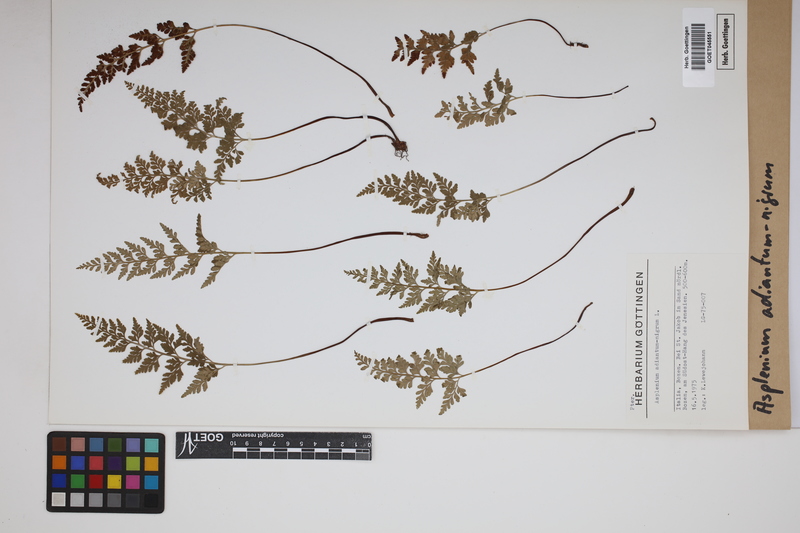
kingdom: Plantae
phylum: Tracheophyta
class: Polypodiopsida
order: Polypodiales
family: Aspleniaceae
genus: Asplenium
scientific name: Asplenium adiantum-nigrum
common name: Black spleenwort
